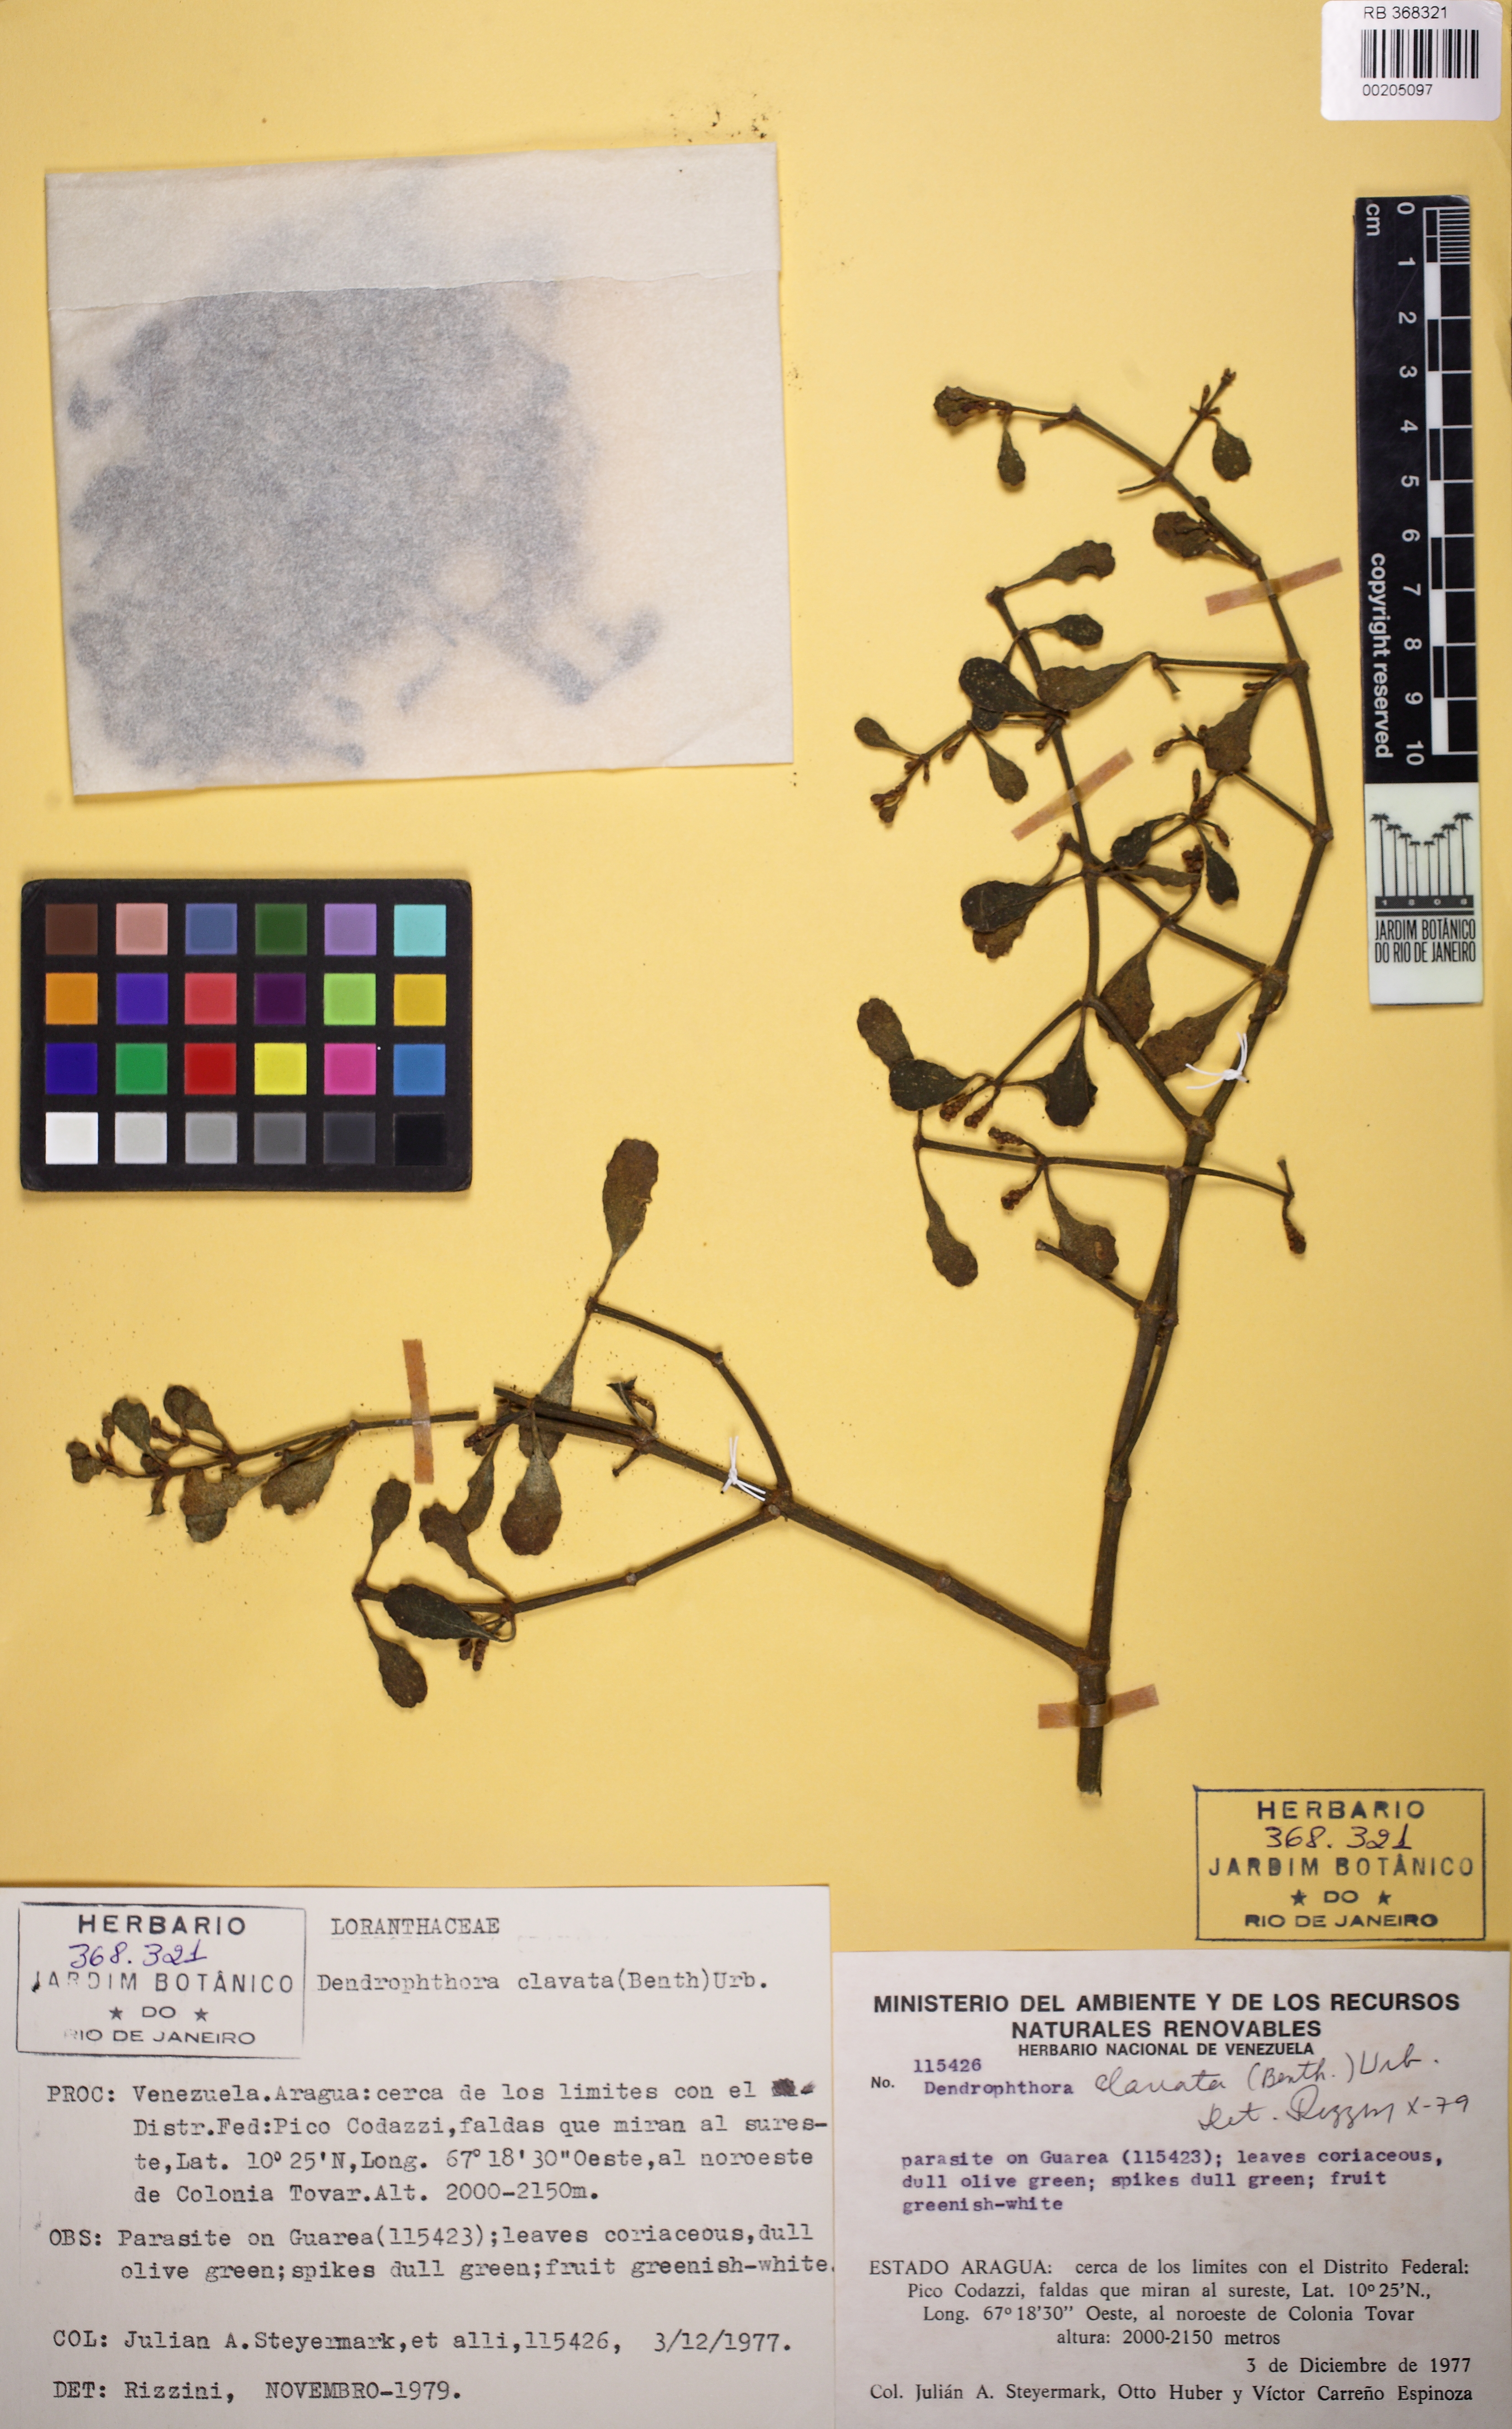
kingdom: Plantae
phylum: Tracheophyta
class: Magnoliopsida
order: Santalales
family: Viscaceae
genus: Dendrophthora
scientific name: Dendrophthora clavata
